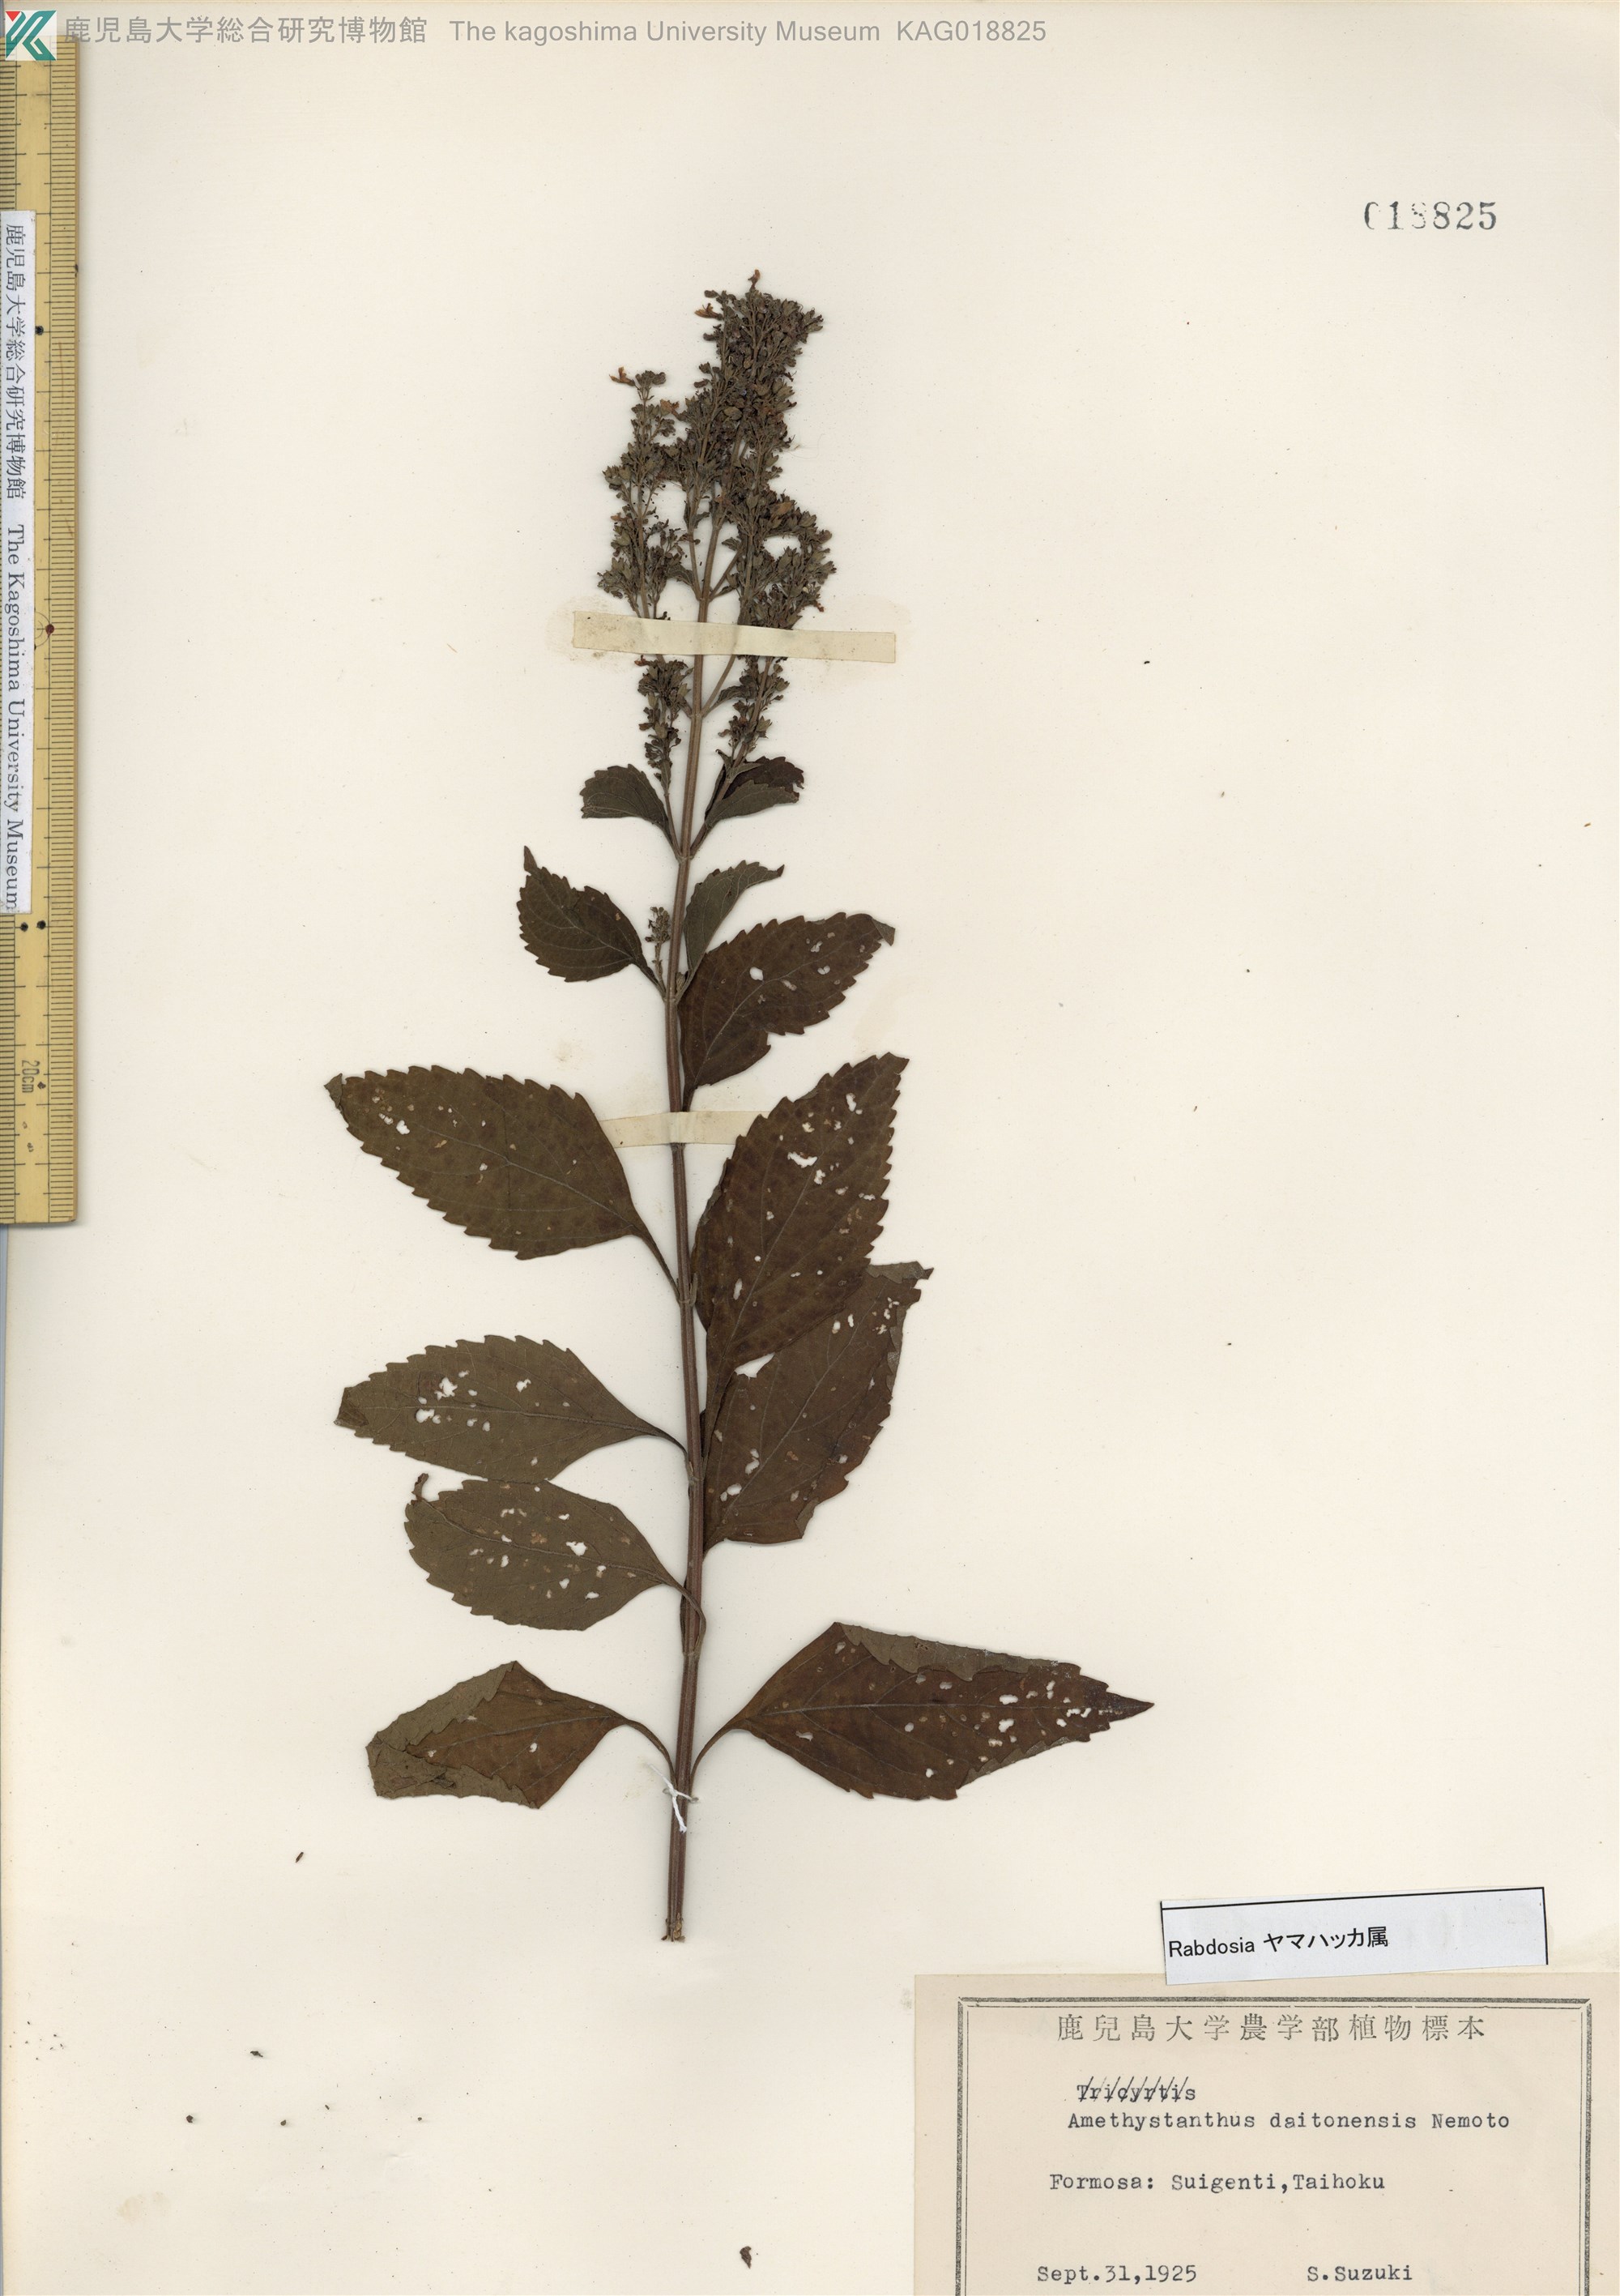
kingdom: Plantae
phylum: Tracheophyta
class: Magnoliopsida
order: Lamiales
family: Lamiaceae
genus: Isodon
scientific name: Isodon serra
